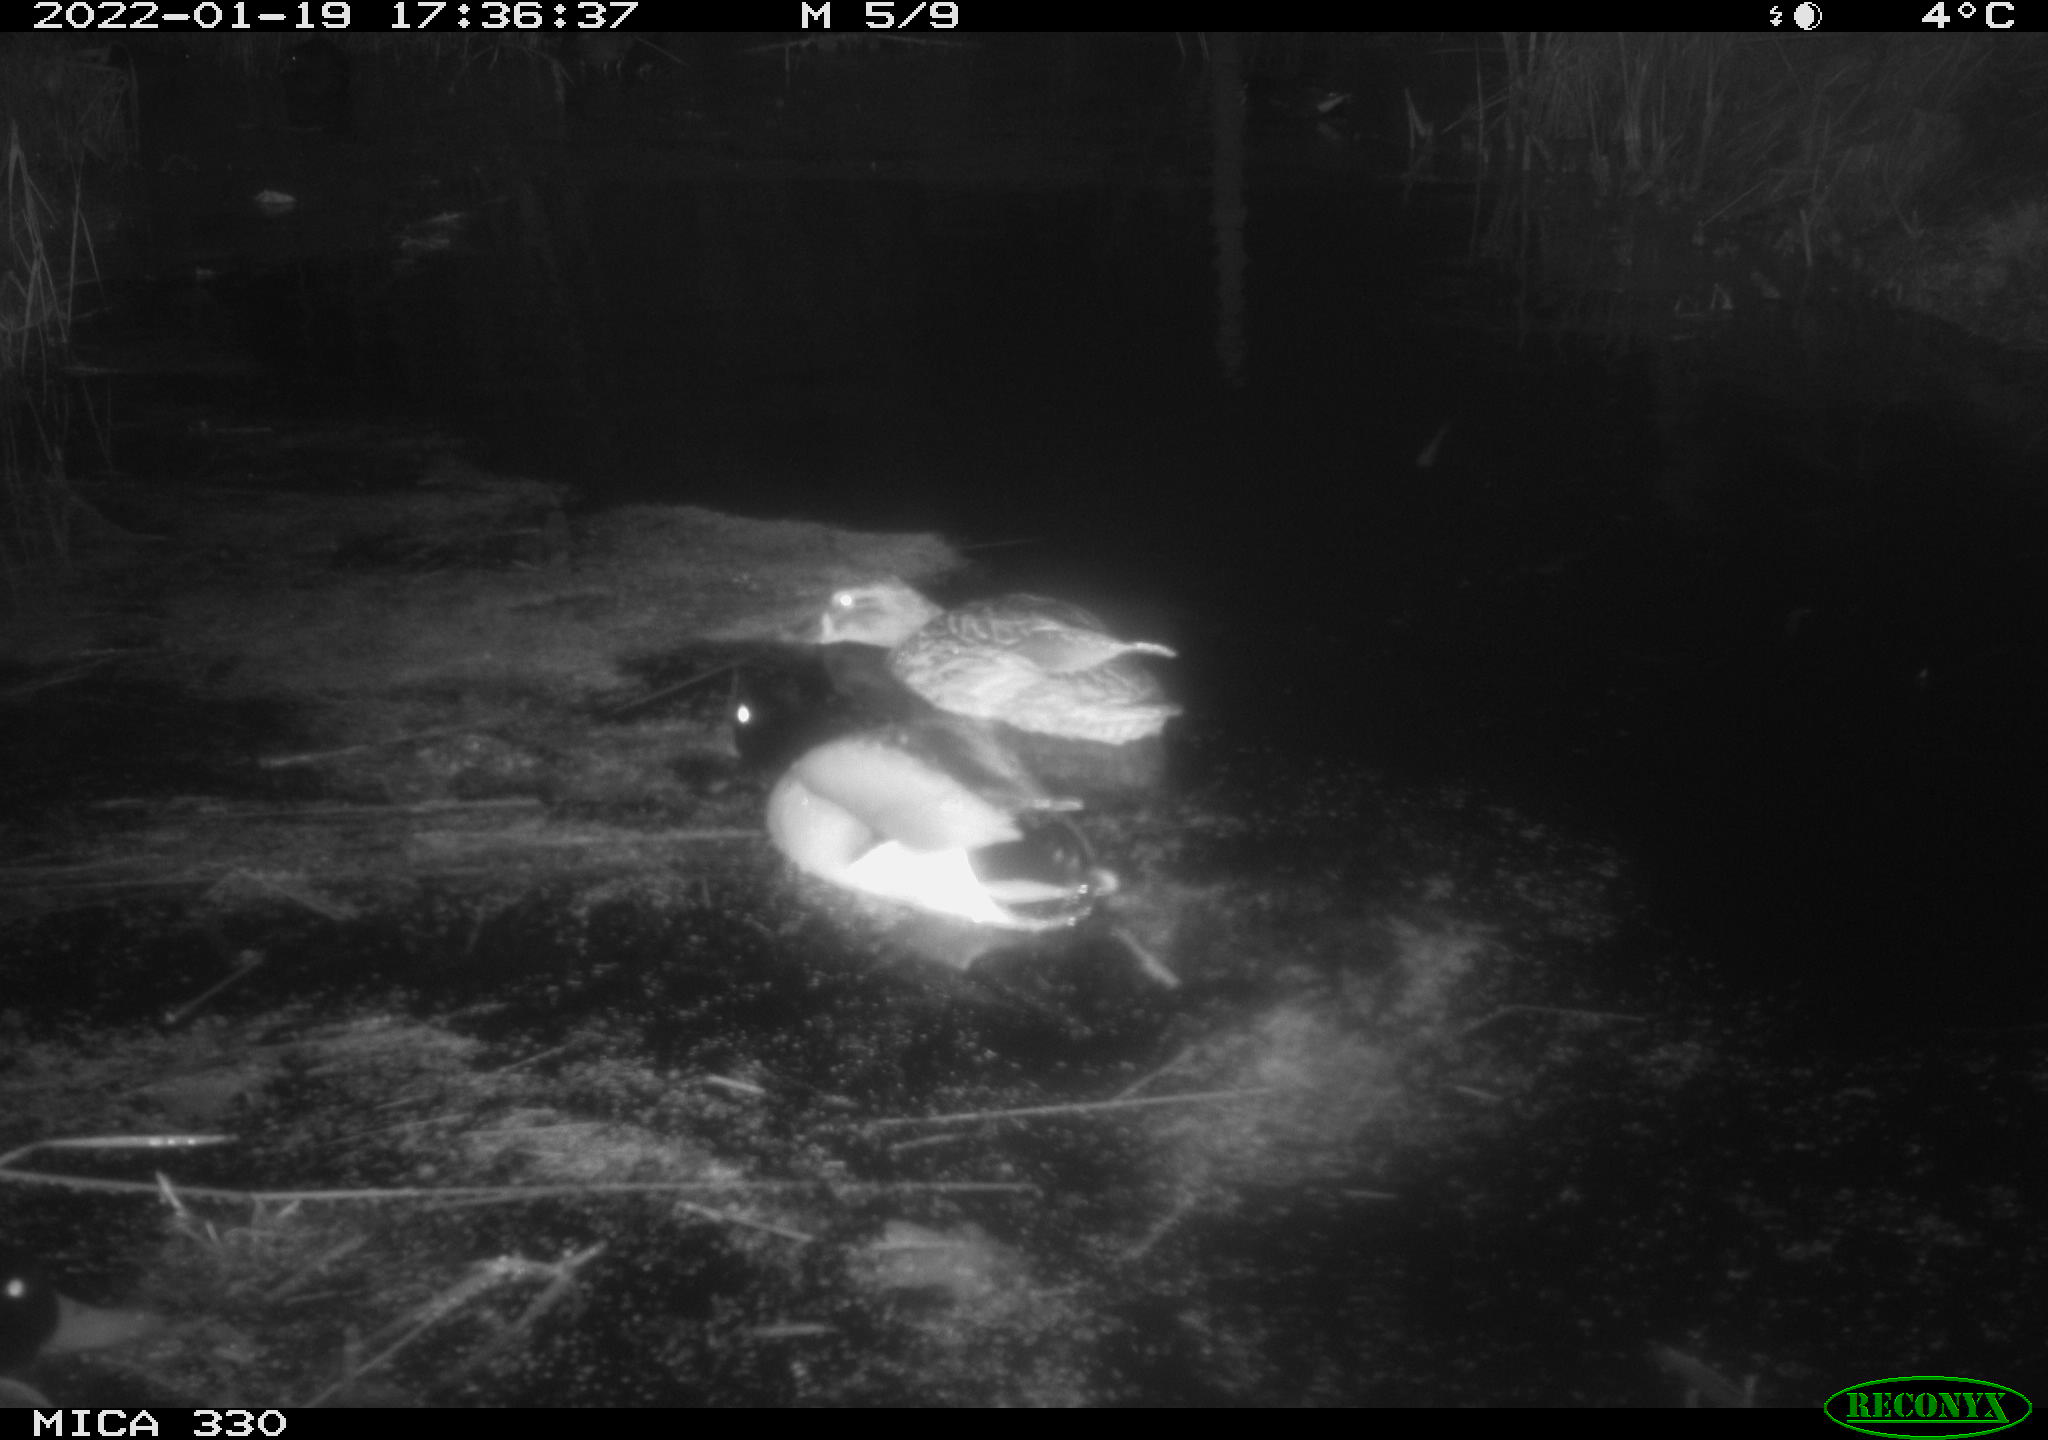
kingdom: Animalia
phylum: Chordata
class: Aves
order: Anseriformes
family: Anatidae
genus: Anas
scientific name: Anas platyrhynchos
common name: Mallard
